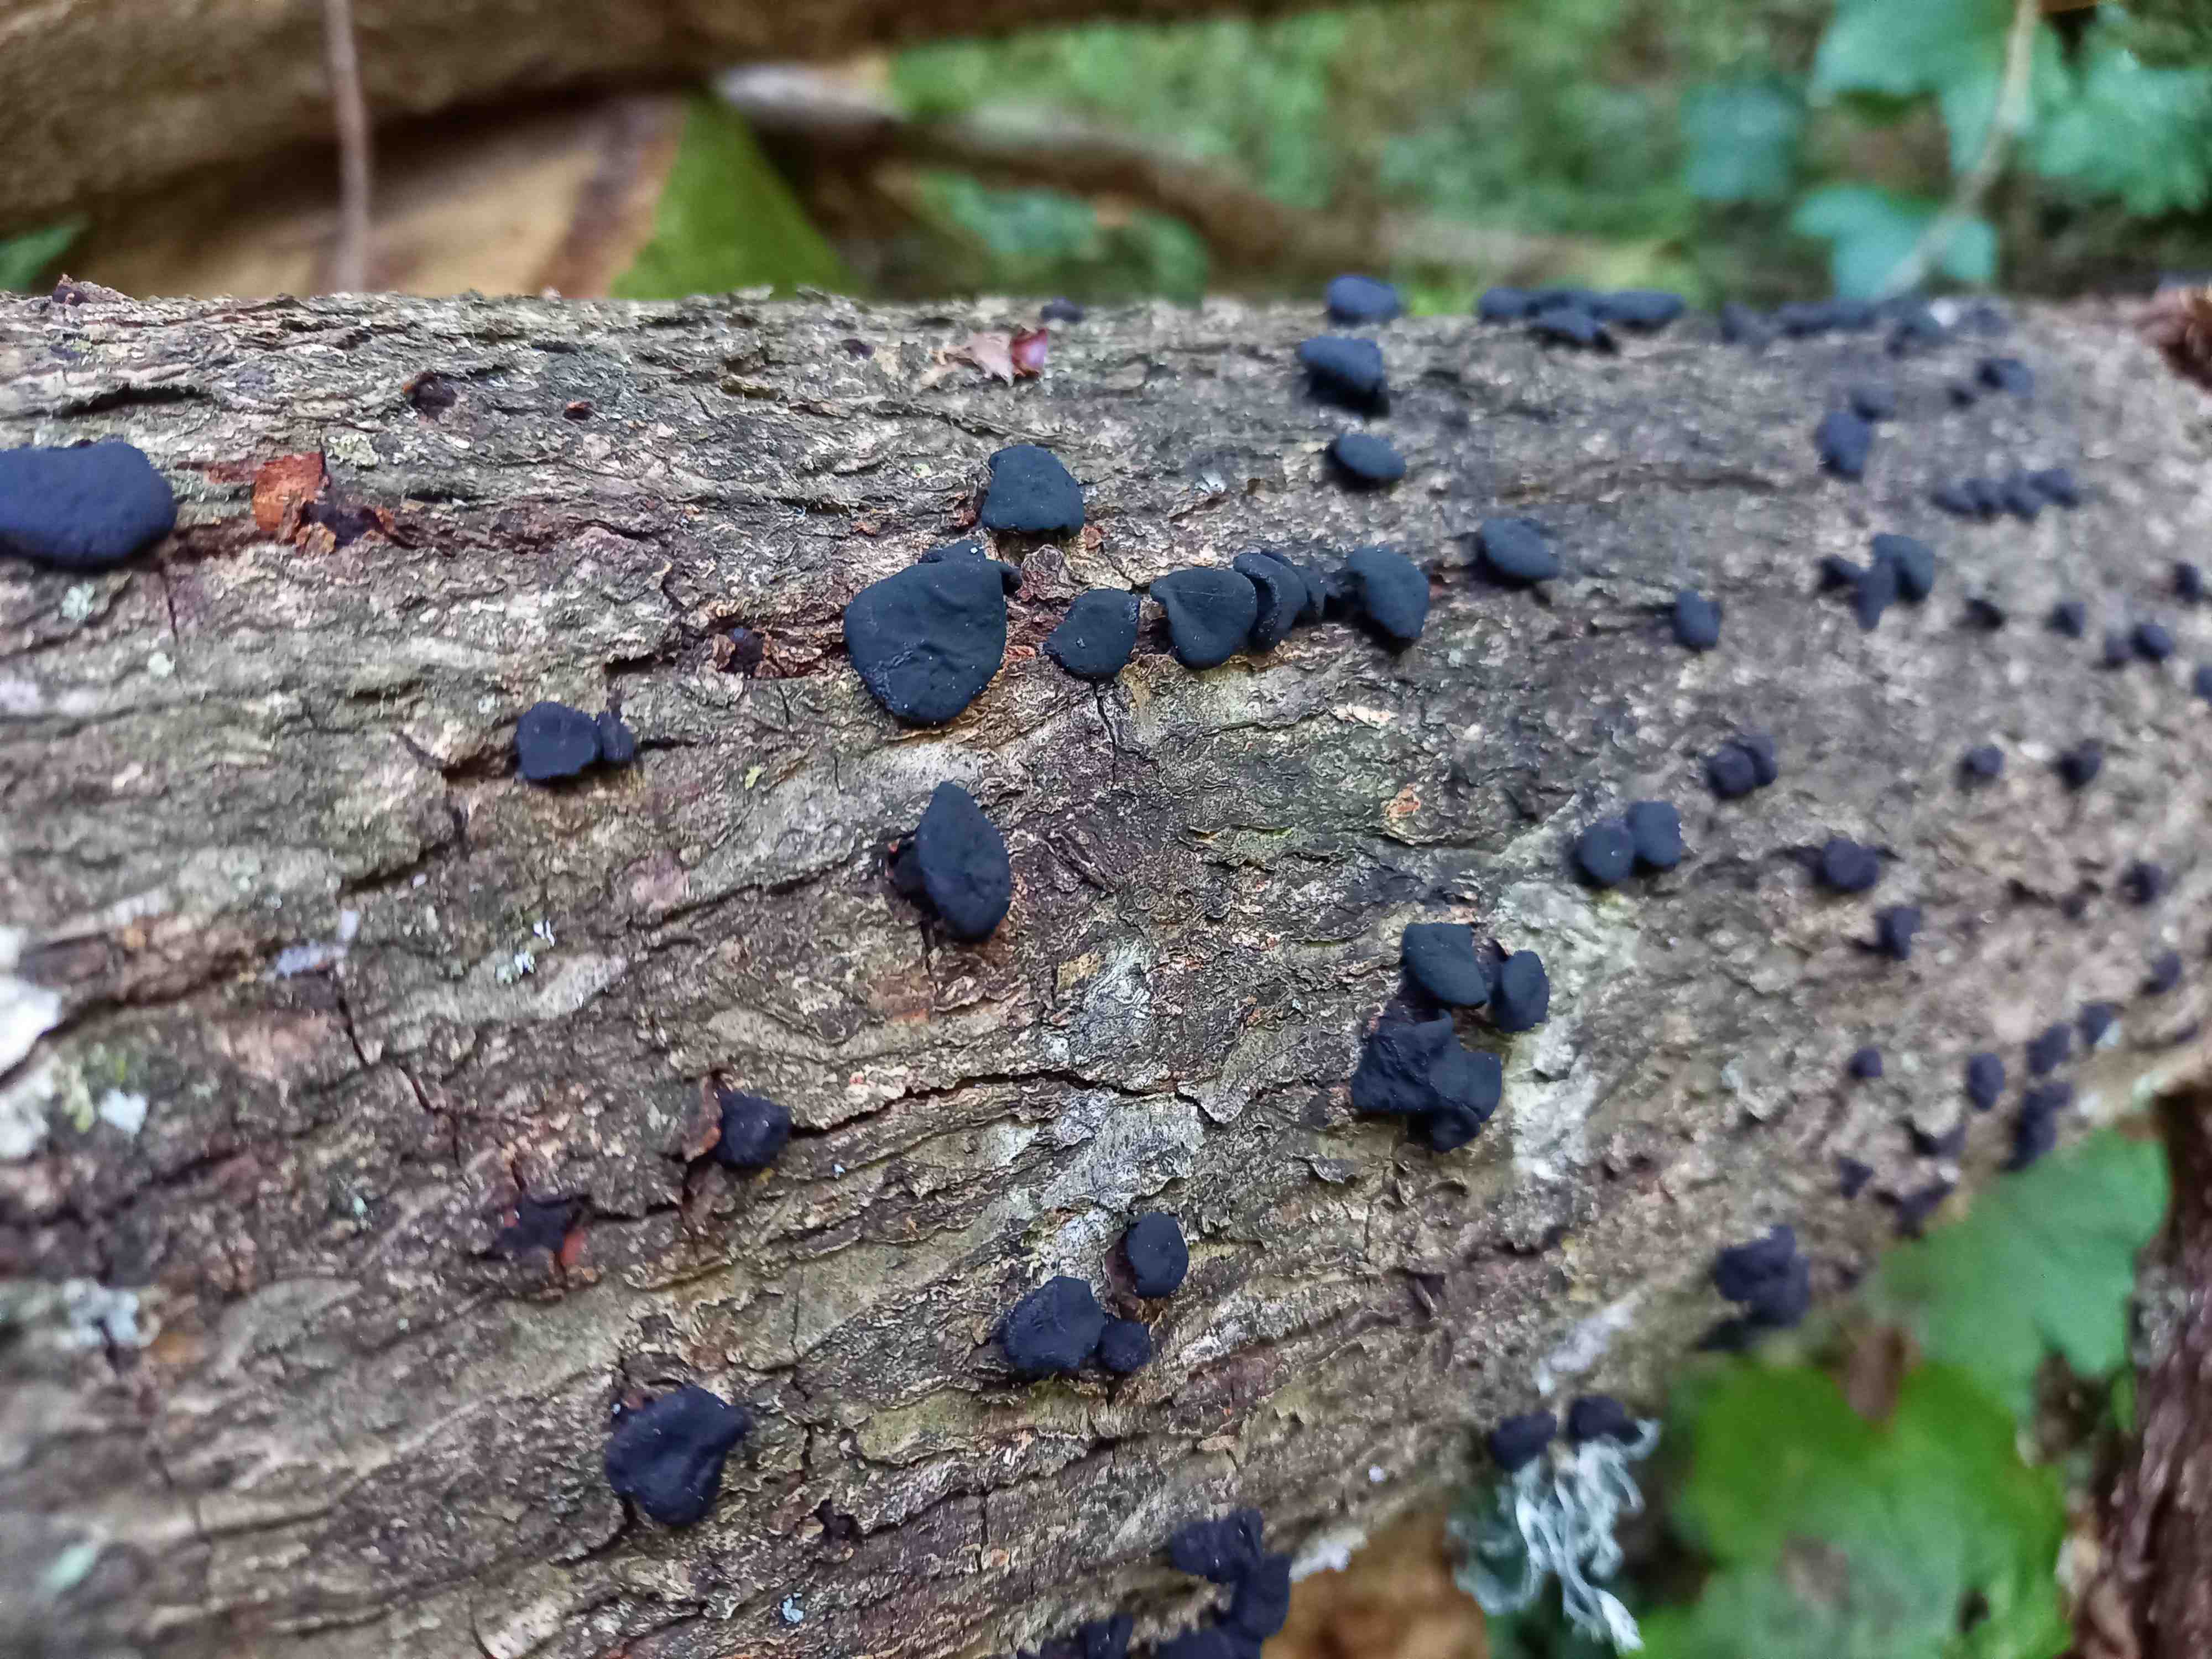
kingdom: Fungi
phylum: Ascomycota
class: Leotiomycetes
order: Phacidiales
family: Phacidiaceae
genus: Bulgaria
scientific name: Bulgaria inquinans
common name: afsmittende topsvamp
